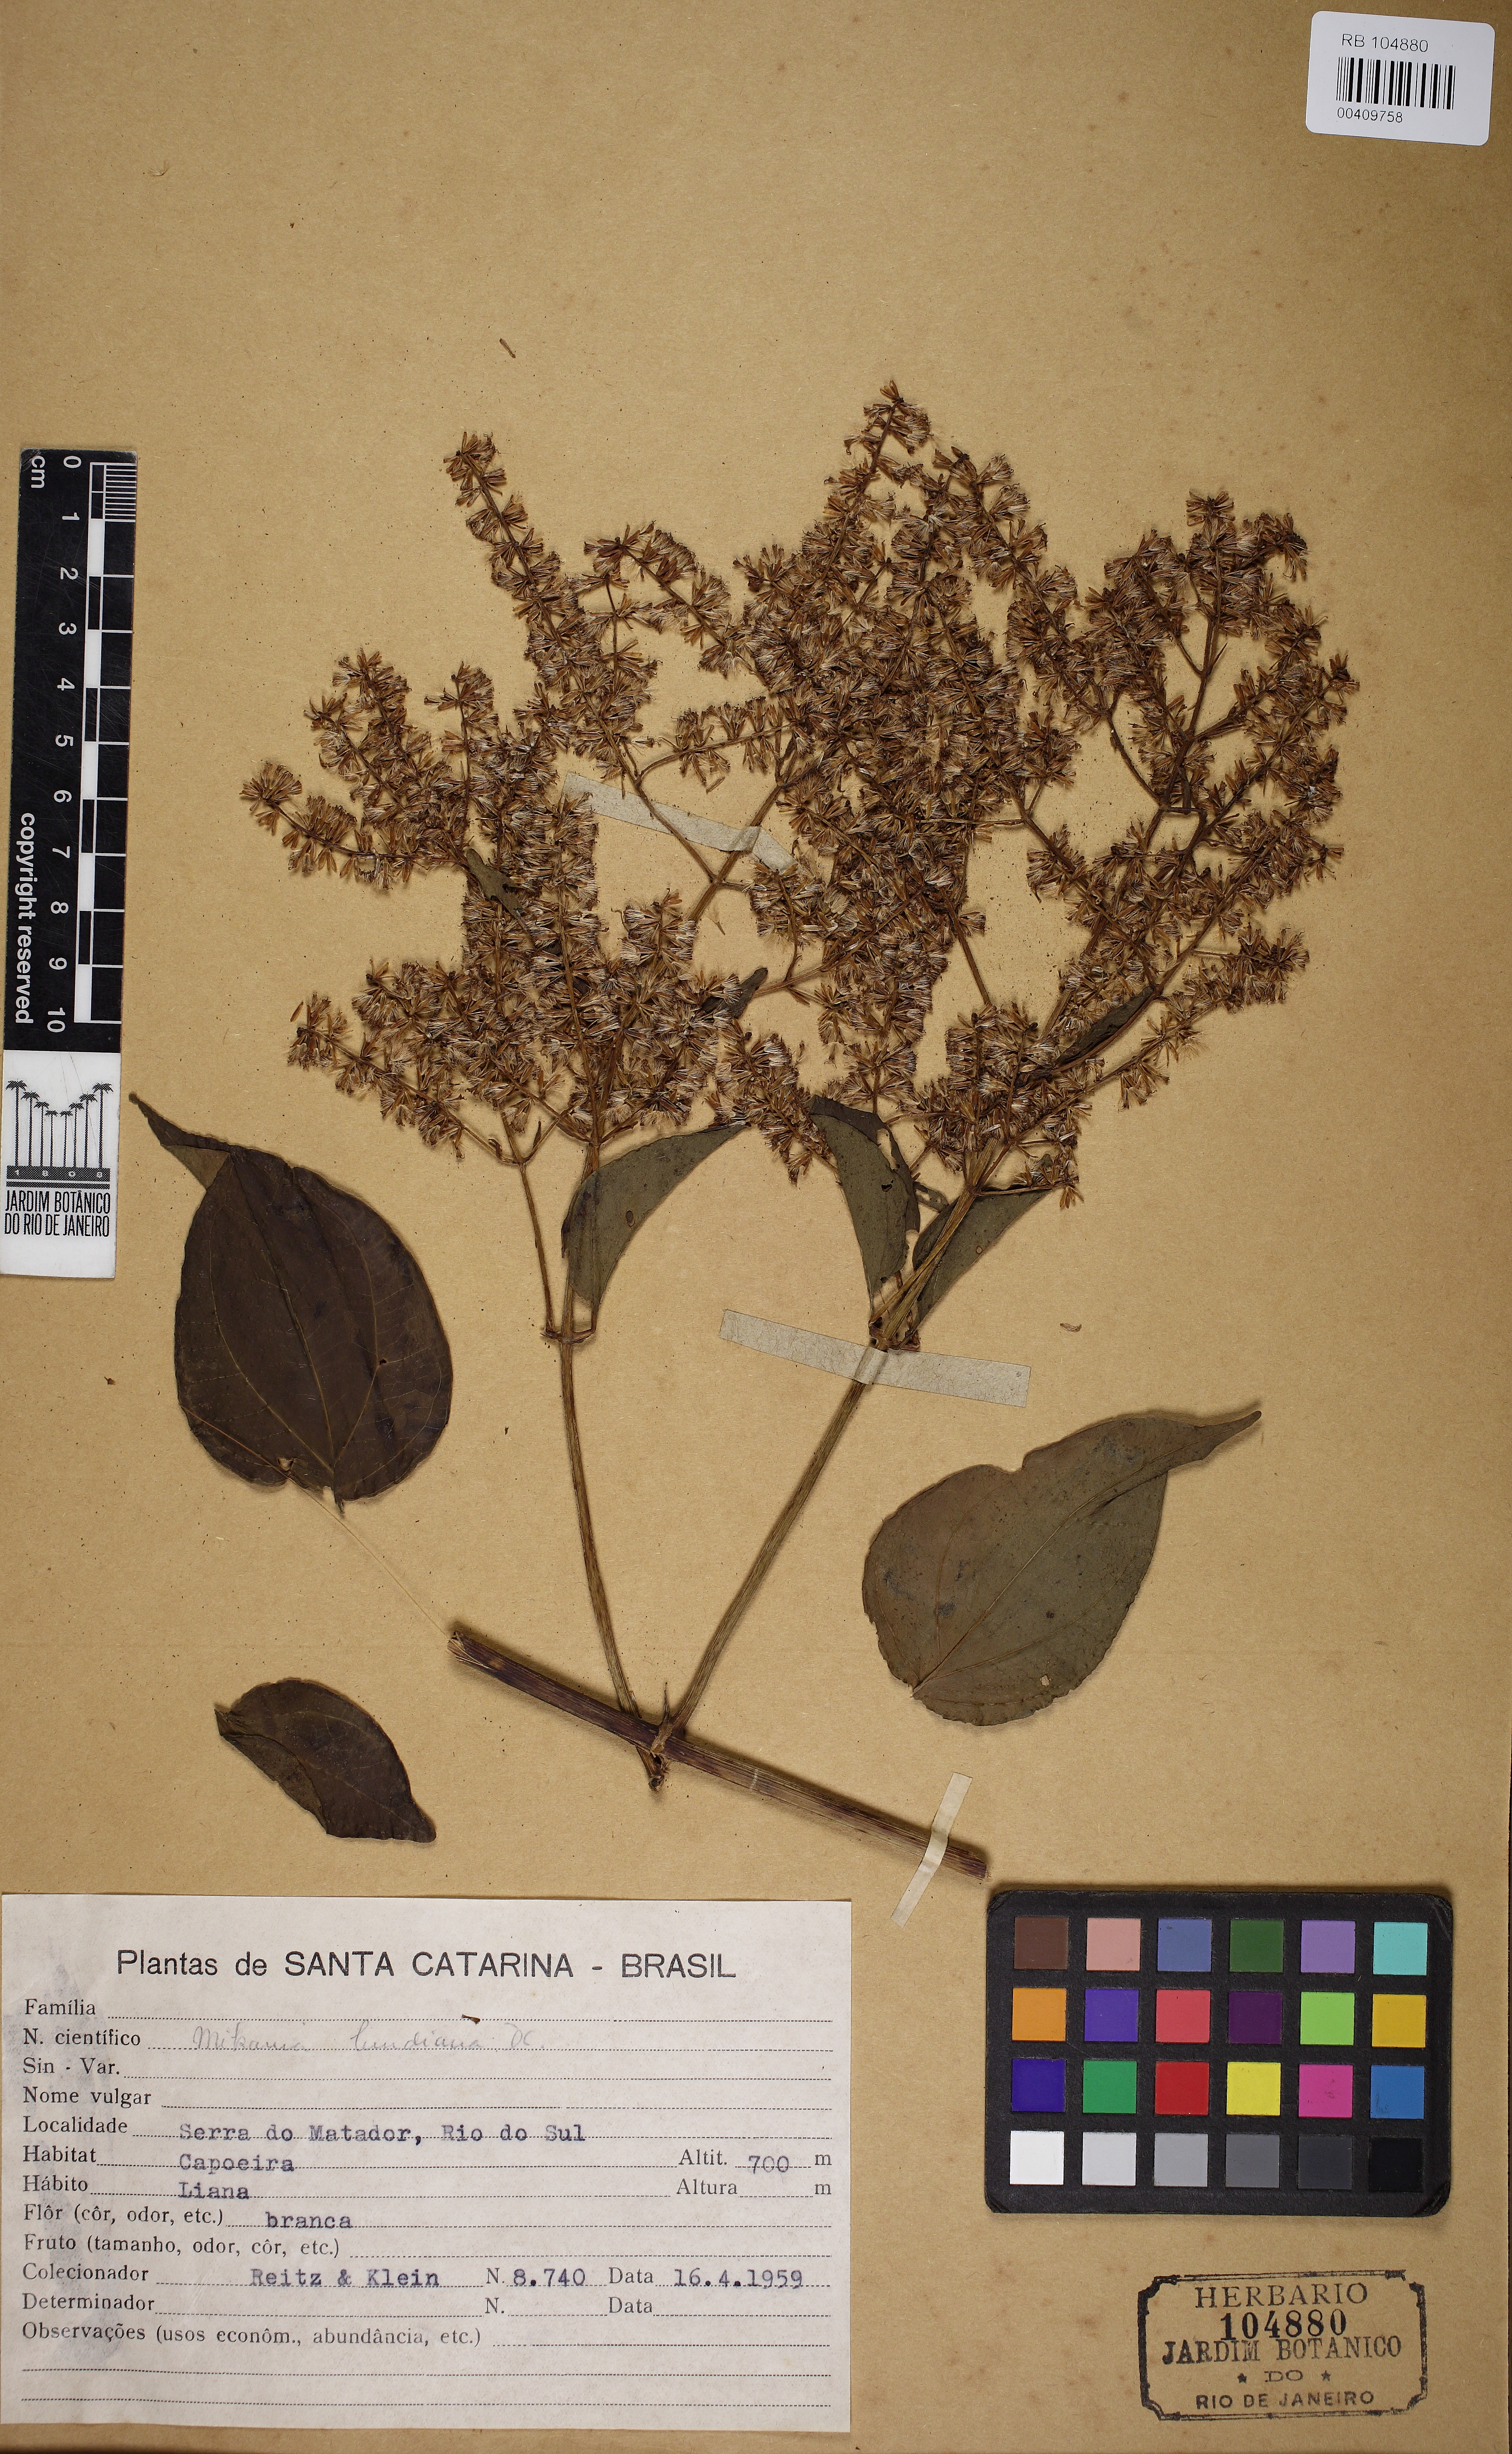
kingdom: Plantae
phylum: Tracheophyta
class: Magnoliopsida
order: Asterales
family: Asteraceae
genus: Mikania
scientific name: Mikania lundiana
